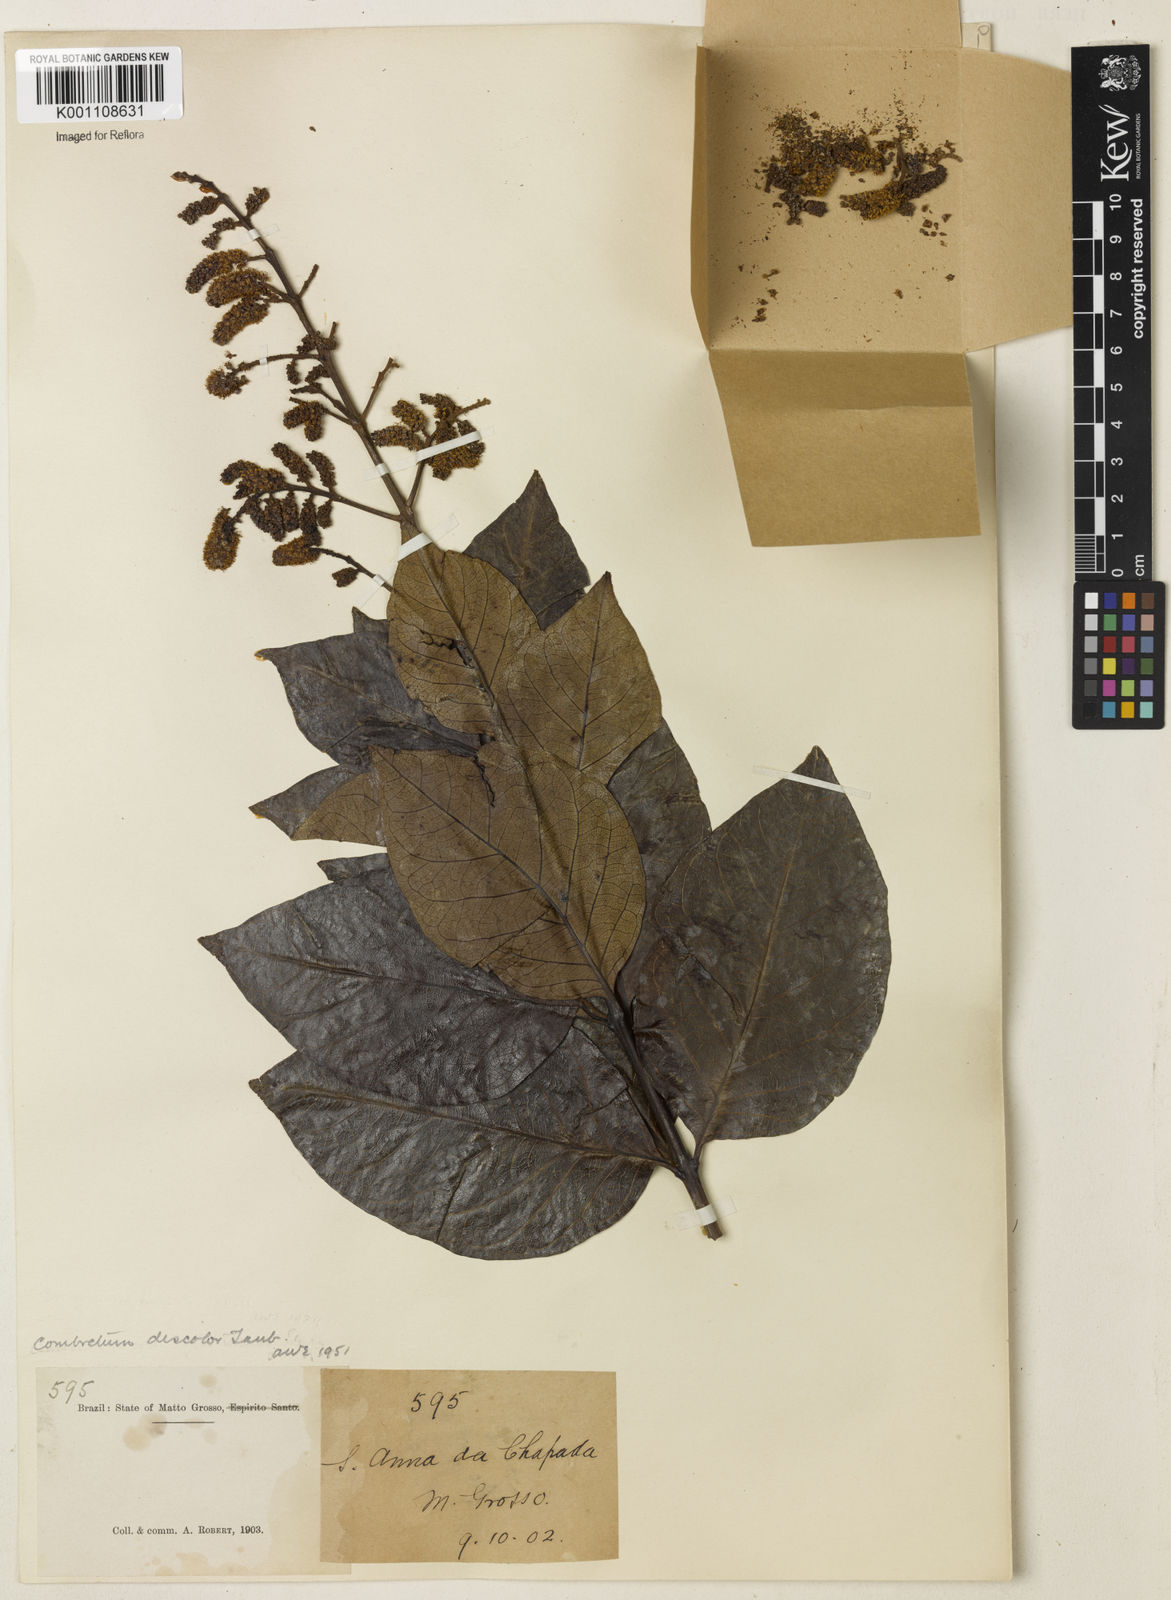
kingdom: Plantae
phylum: Tracheophyta
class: Magnoliopsida
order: Myrtales
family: Combretaceae
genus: Combretum
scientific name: Combretum discolor
